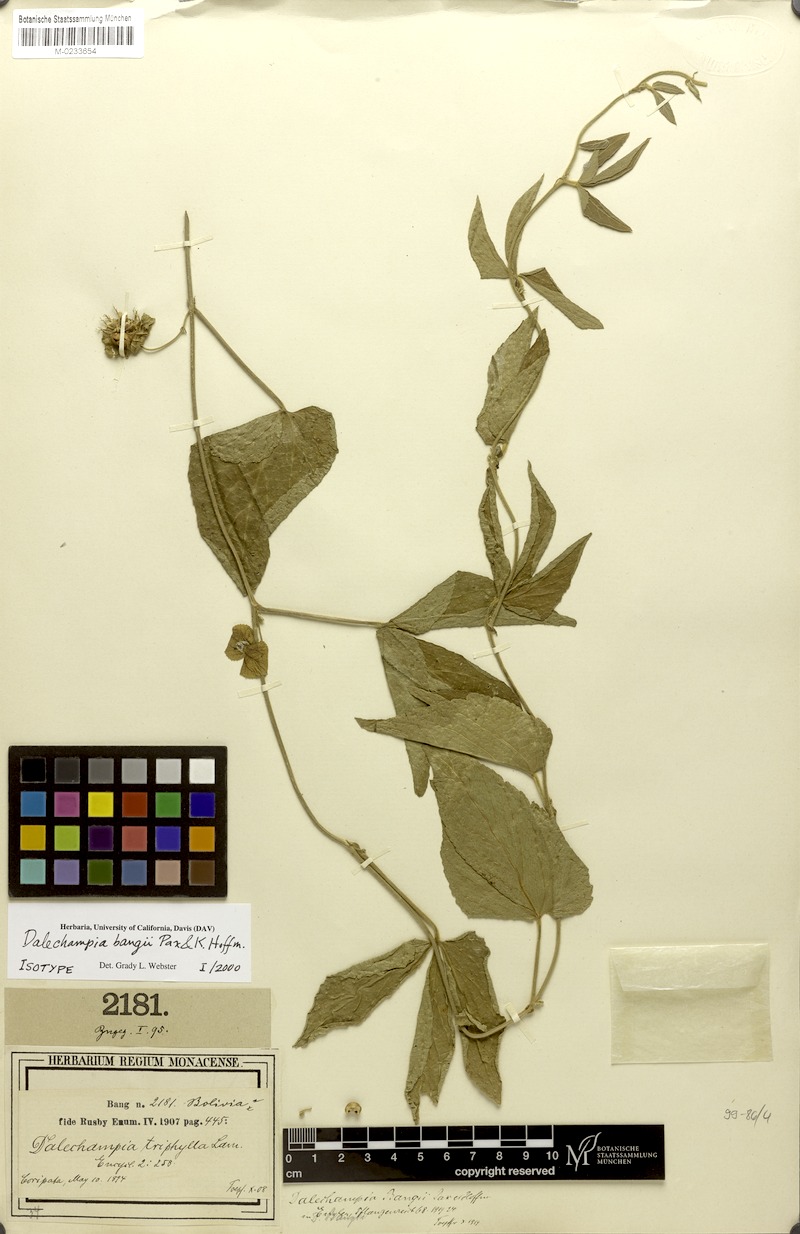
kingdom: Plantae
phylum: Tracheophyta
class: Magnoliopsida
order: Malpighiales
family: Euphorbiaceae
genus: Dalechampia
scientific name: Dalechampia bangii
